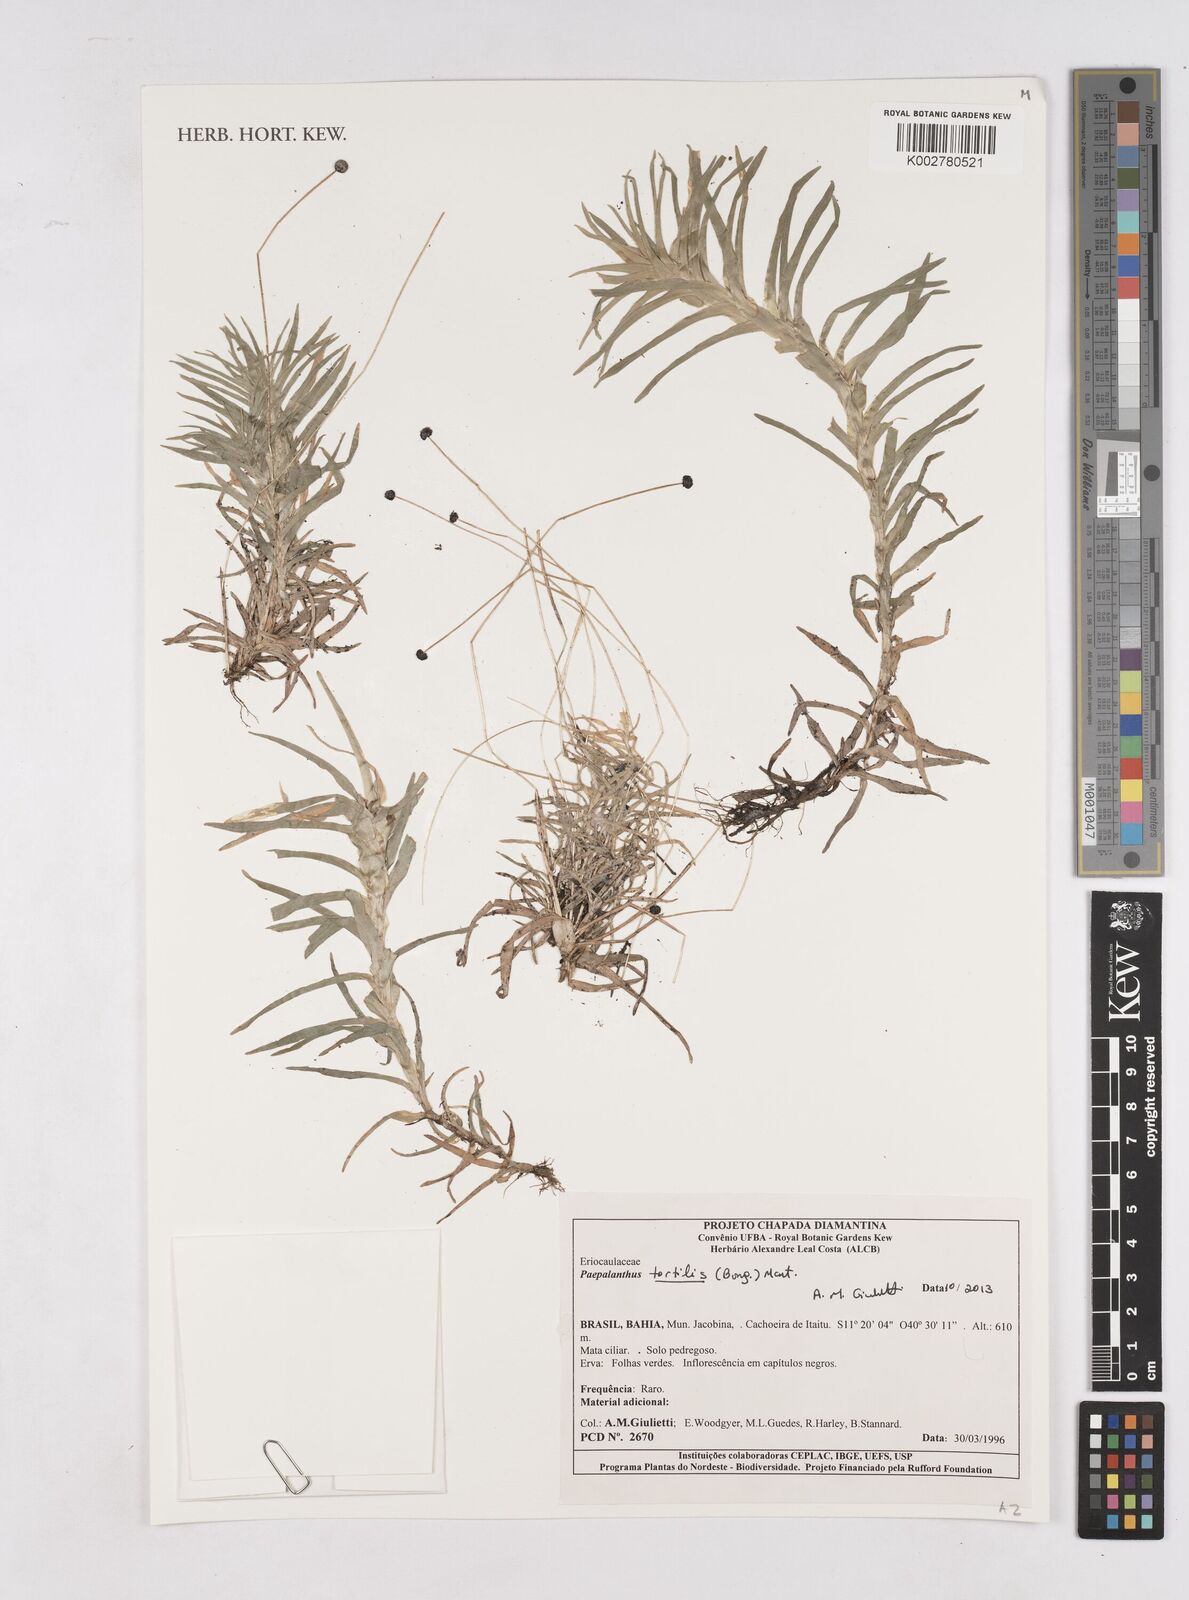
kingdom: Plantae
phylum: Tracheophyta
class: Liliopsida
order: Poales
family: Eriocaulaceae
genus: Syngonanthus
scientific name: Syngonanthus humboldtii
